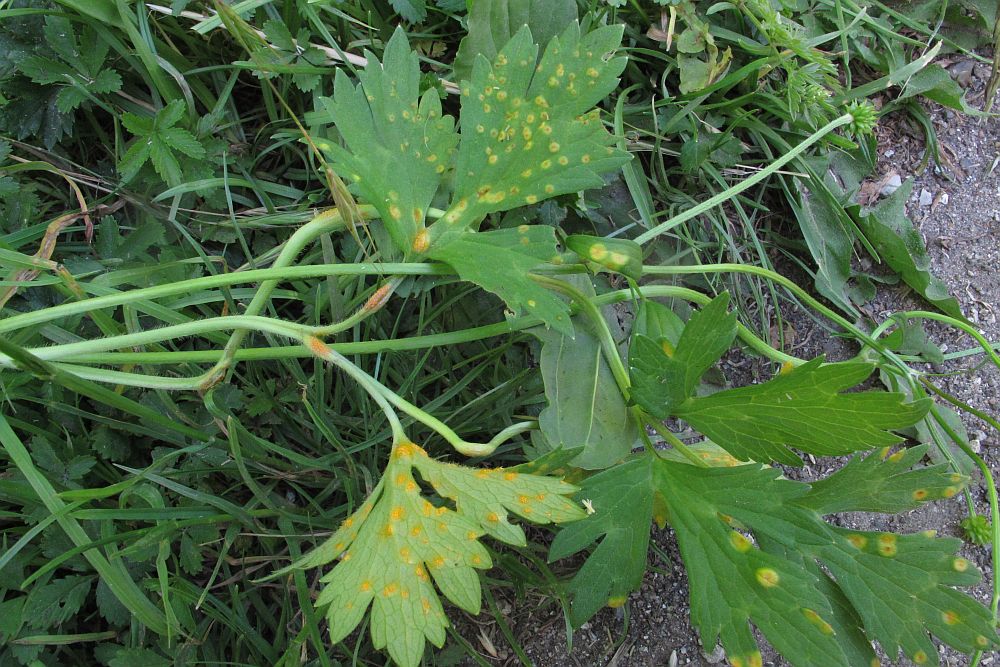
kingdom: Fungi
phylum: Basidiomycota
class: Pucciniomycetes
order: Pucciniales
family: Pucciniaceae
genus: Uromyces
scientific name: Uromyces dactylidis
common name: ranunkel-encellerust
